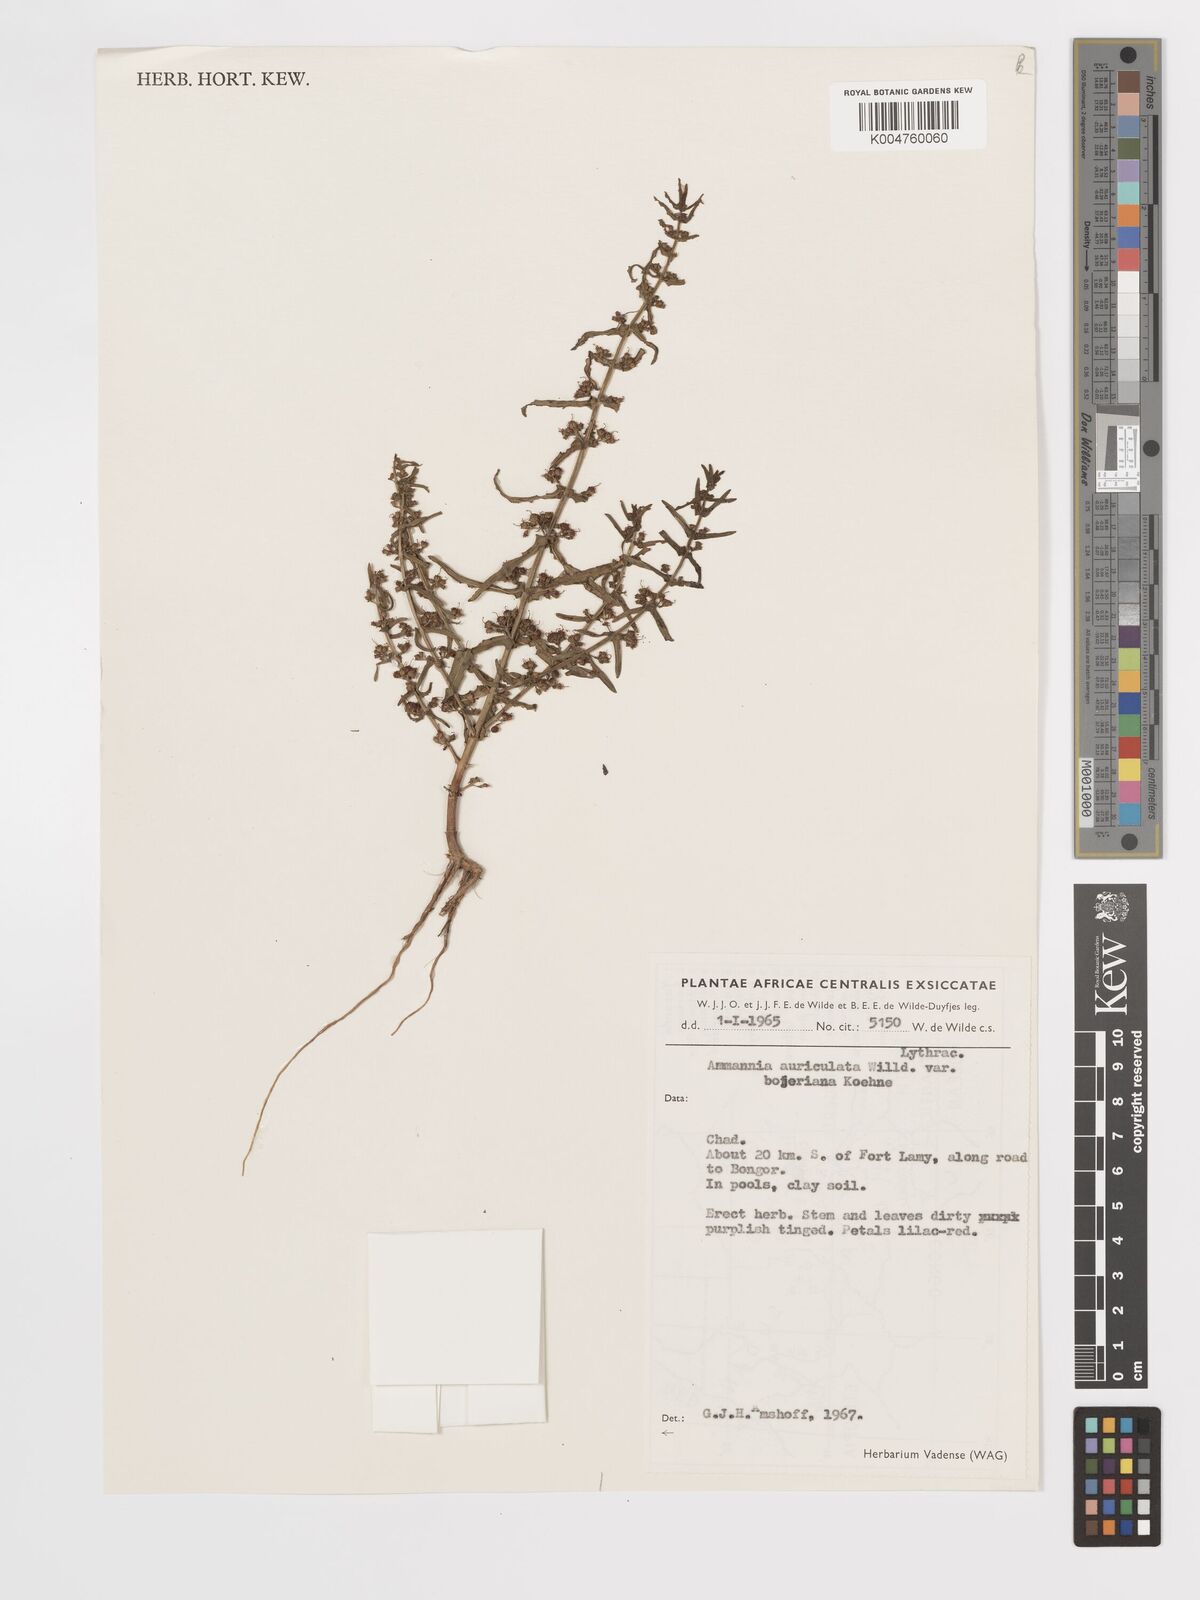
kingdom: Plantae
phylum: Tracheophyta
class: Magnoliopsida
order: Myrtales
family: Lythraceae
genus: Ammannia
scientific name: Ammannia auriculata
